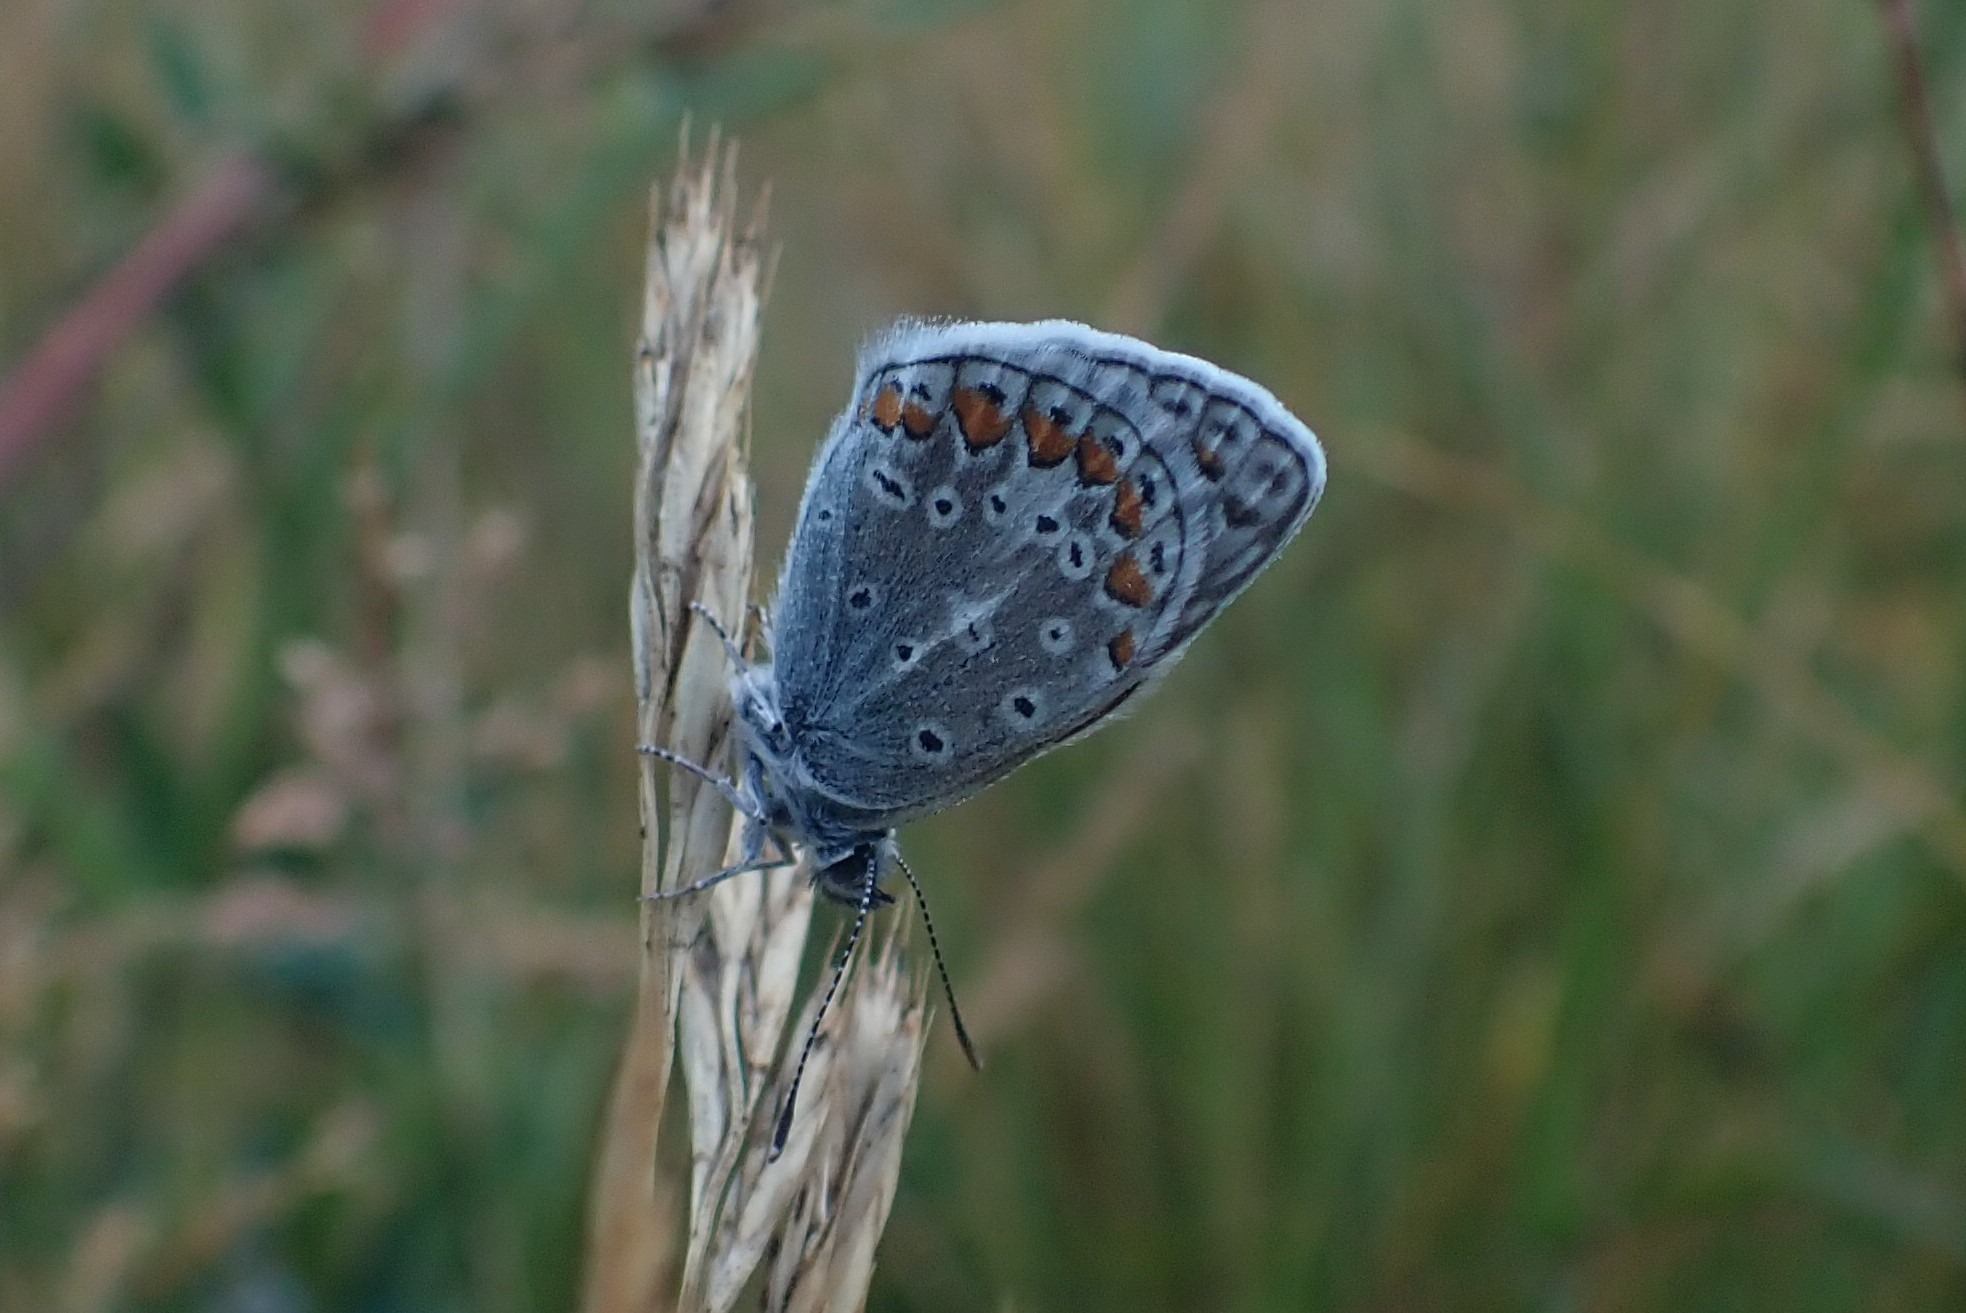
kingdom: Animalia
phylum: Arthropoda
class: Insecta
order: Lepidoptera
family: Lycaenidae
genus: Polyommatus
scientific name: Polyommatus icarus
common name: Almindelig blåfugl
